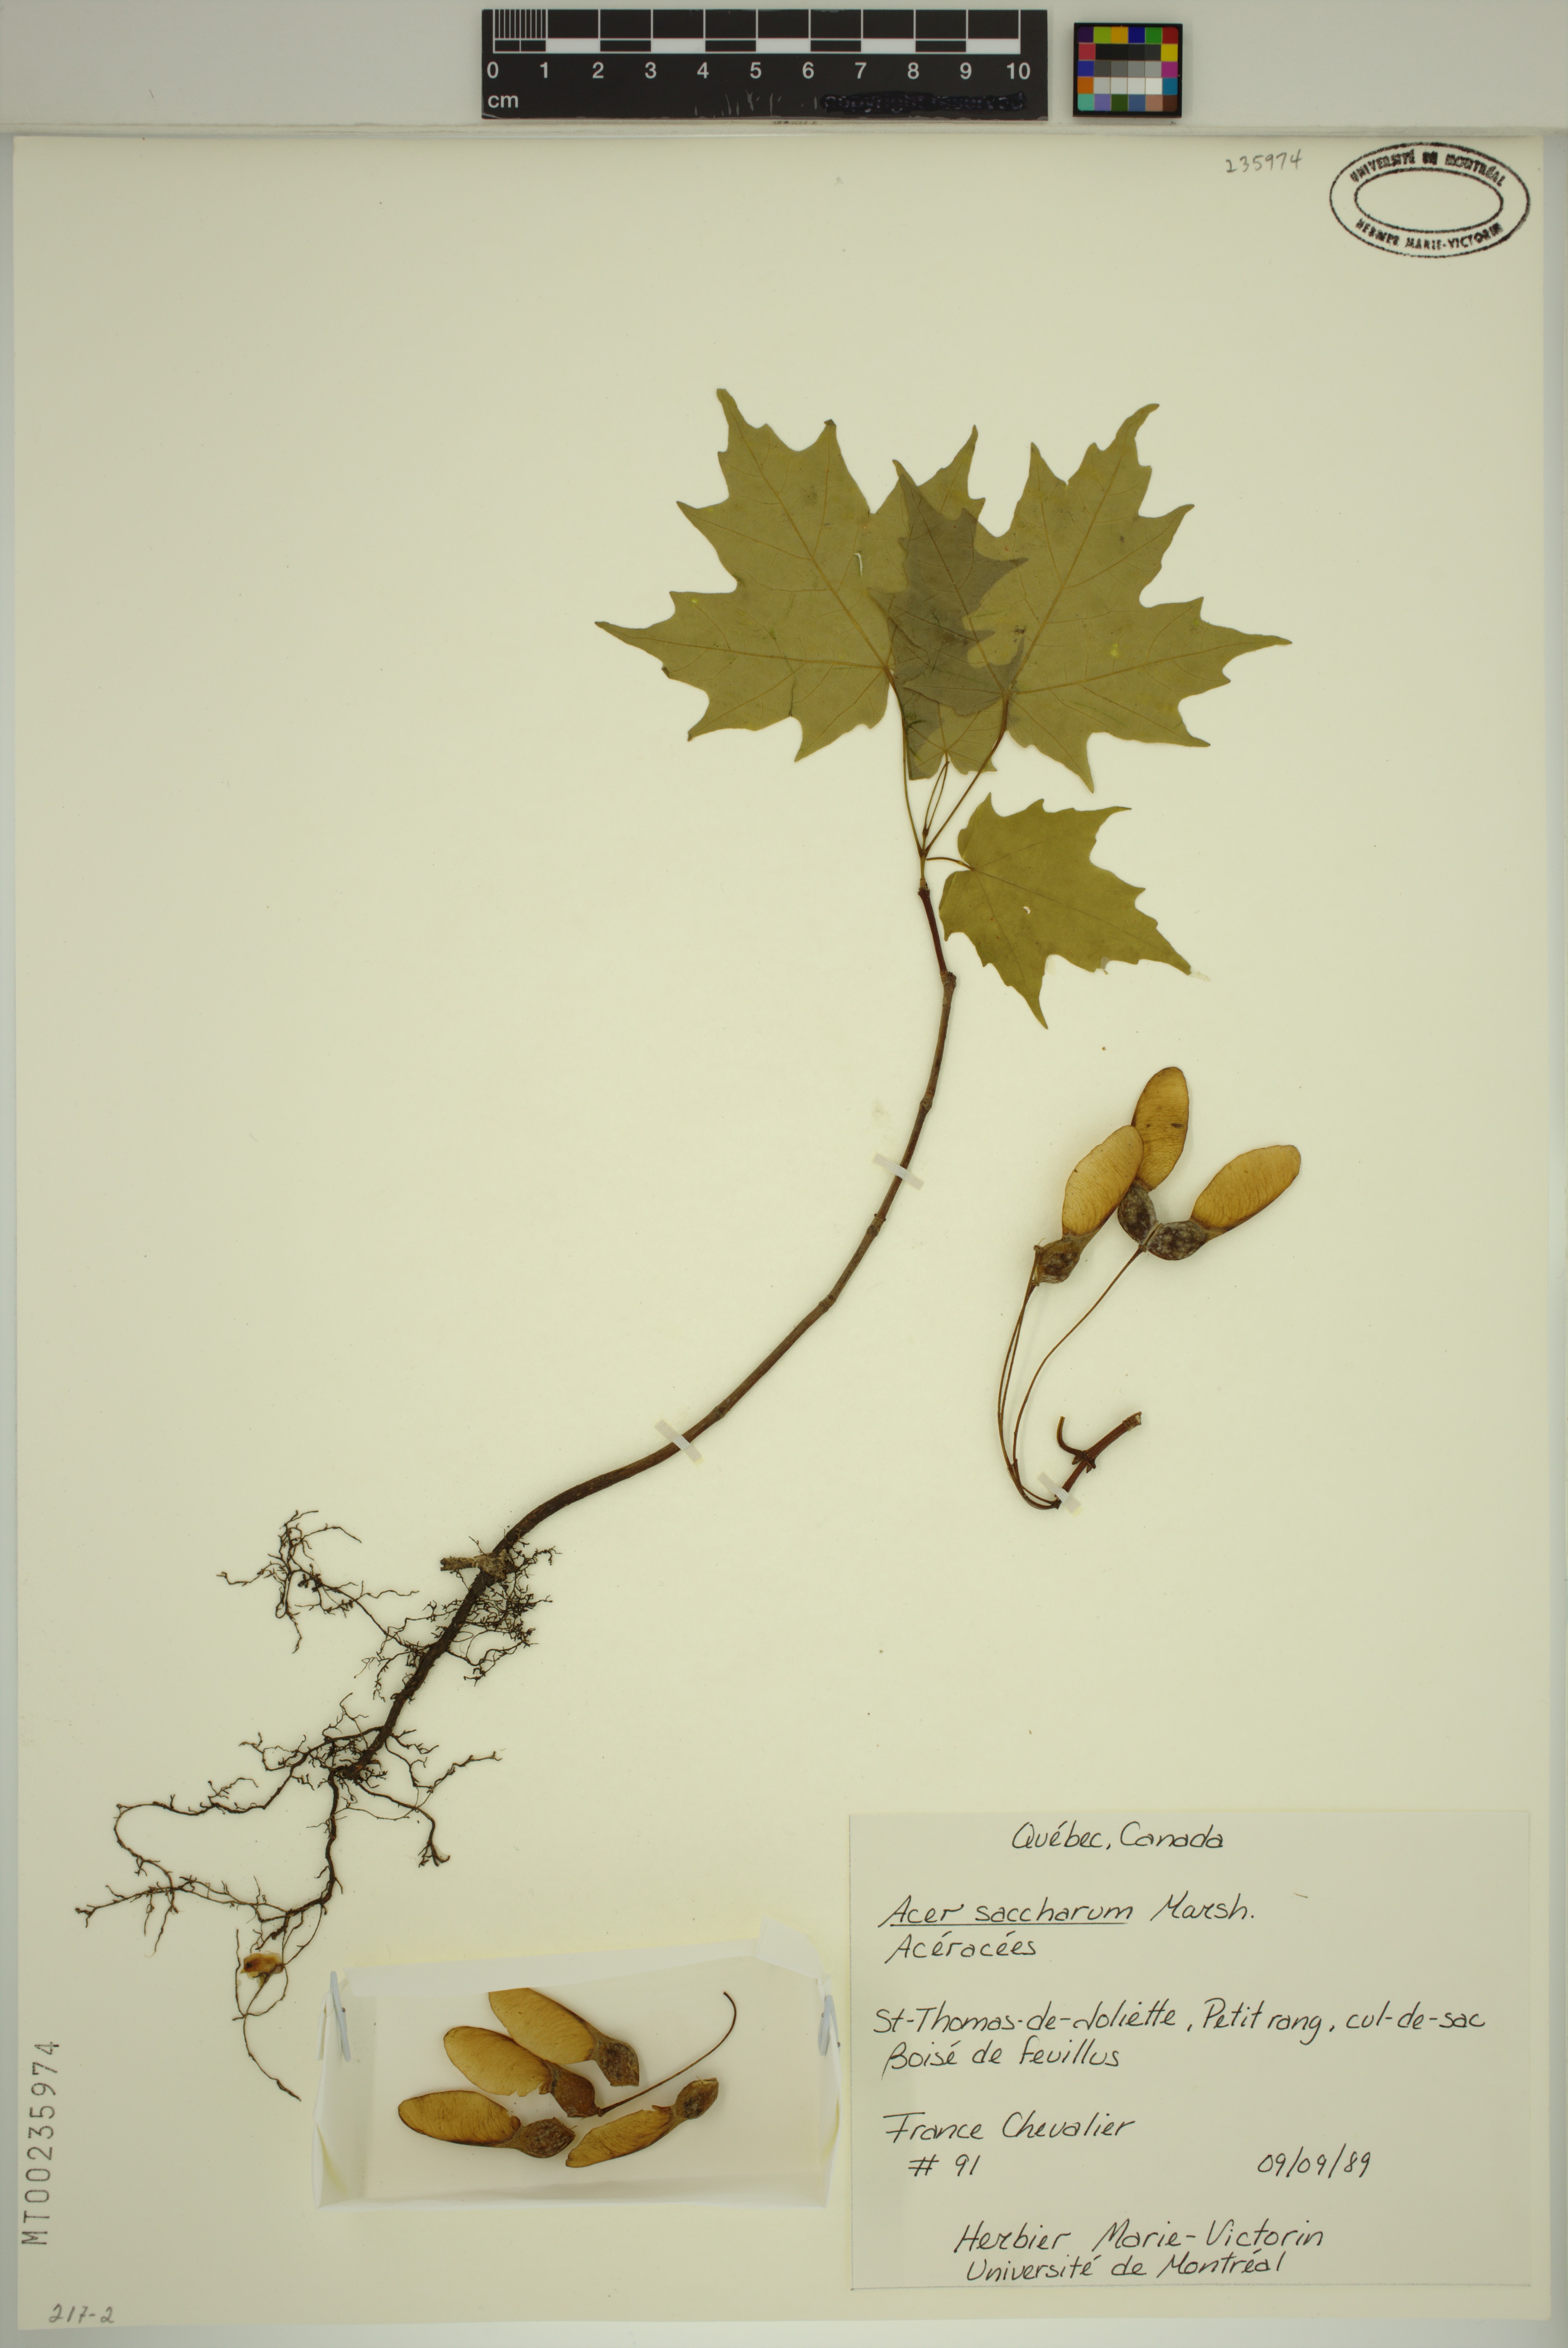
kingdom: Plantae
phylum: Tracheophyta
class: Magnoliopsida
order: Sapindales
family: Sapindaceae
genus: Acer
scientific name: Acer saccharum
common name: Sugar maple
